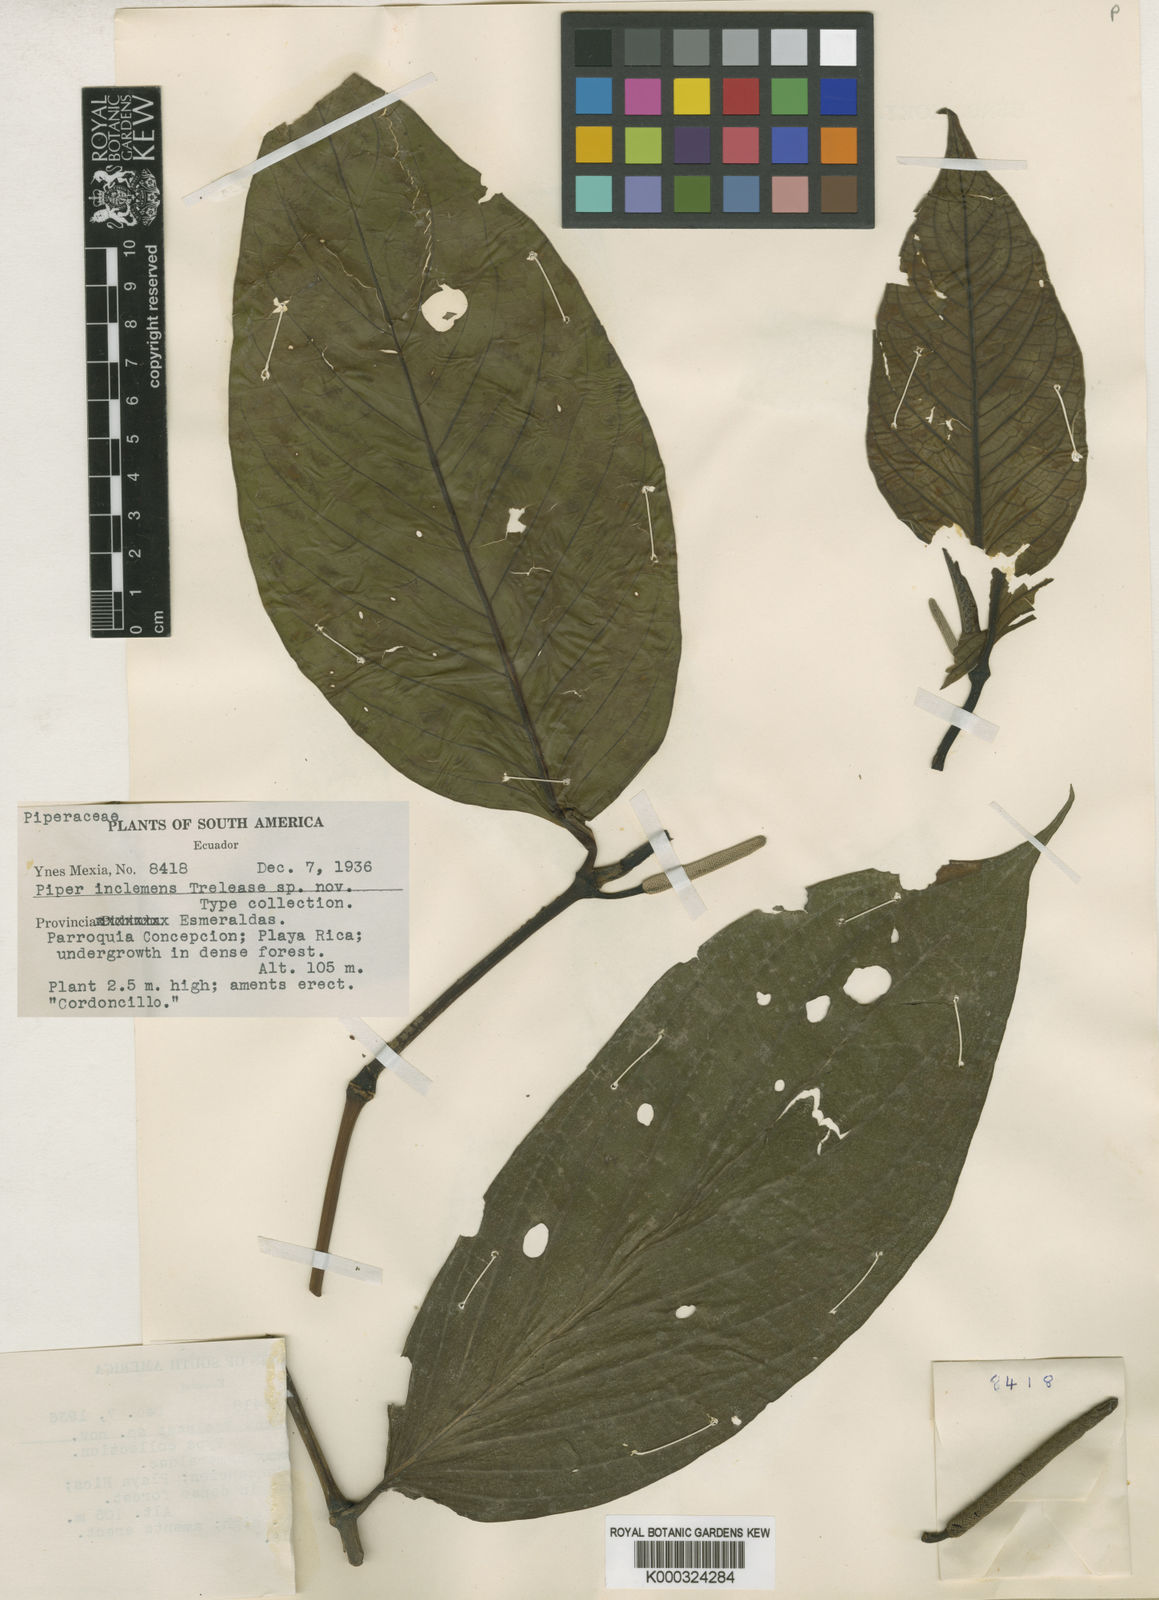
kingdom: Plantae
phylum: Tracheophyta
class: Magnoliopsida
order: Piperales
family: Piperaceae
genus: Piper
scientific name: Piper inclemens
